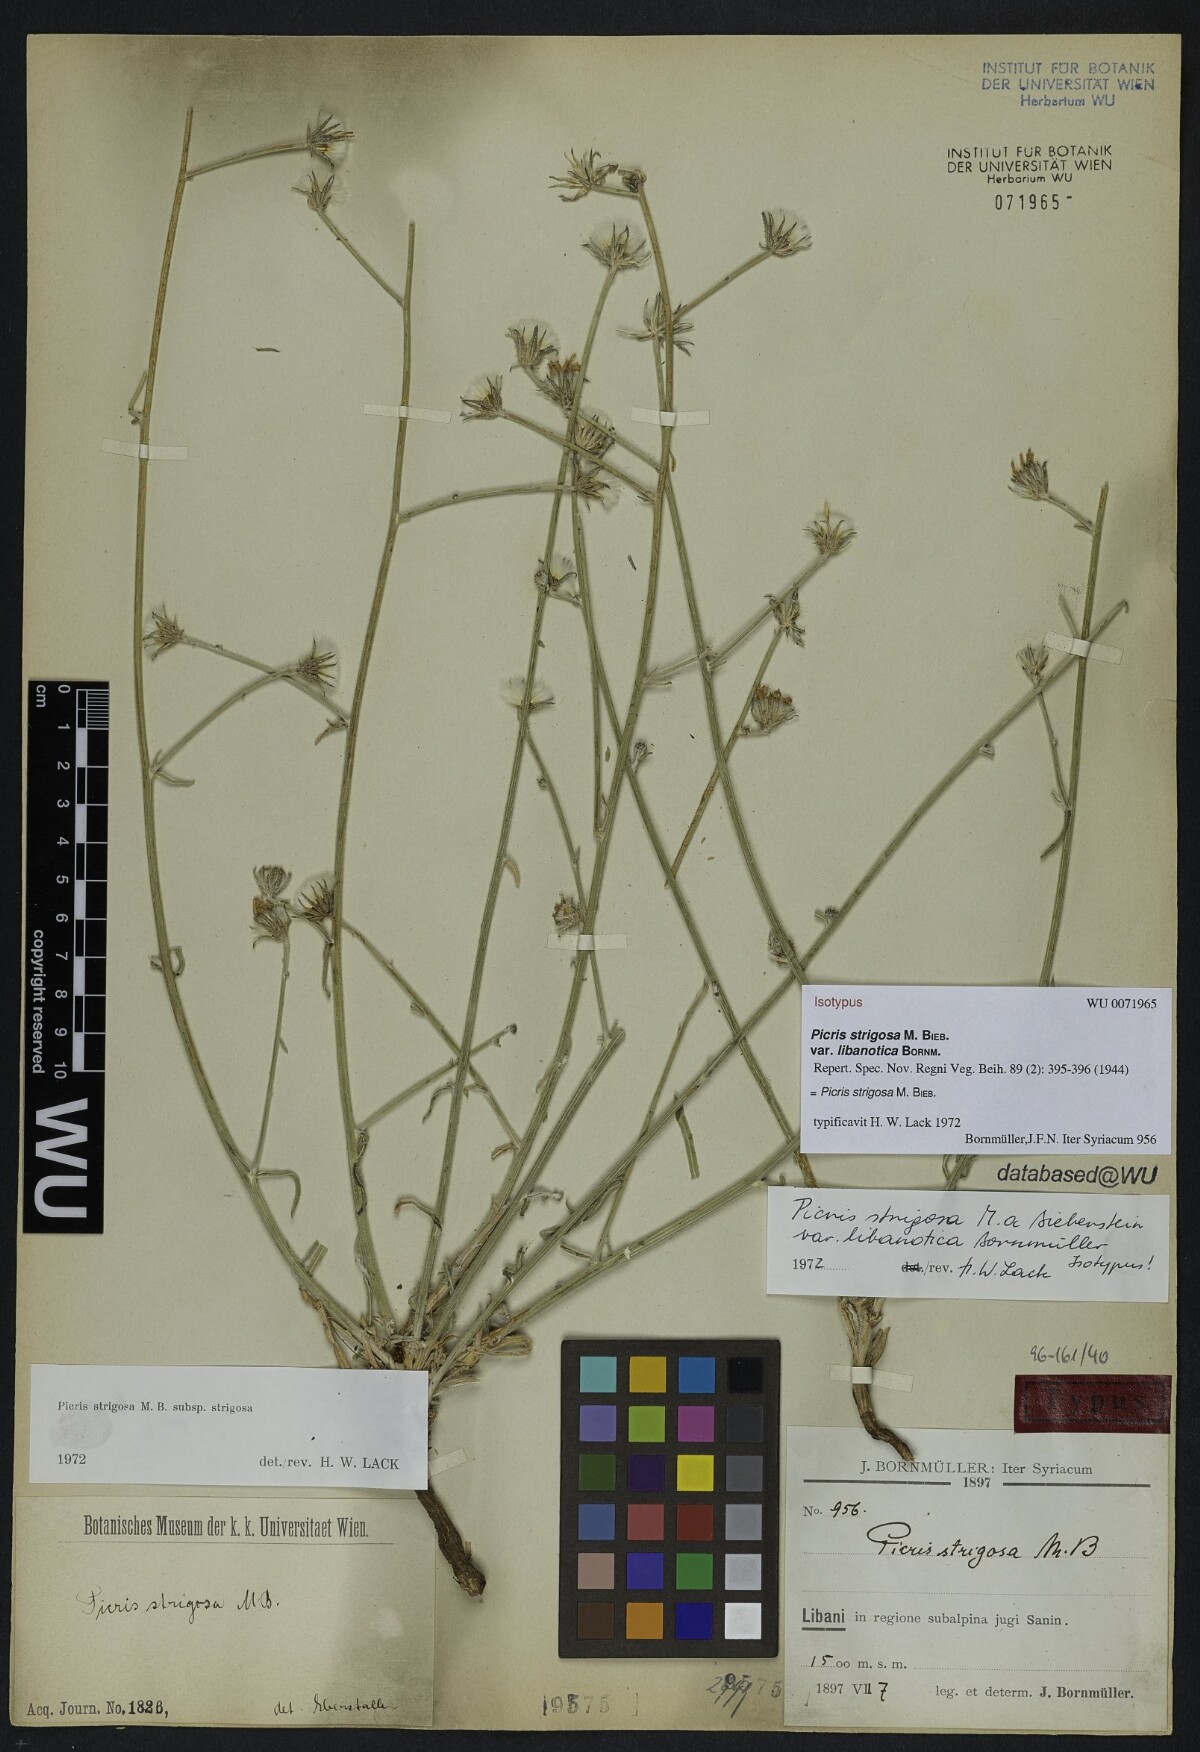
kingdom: Plantae
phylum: Tracheophyta
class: Magnoliopsida
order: Asterales
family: Asteraceae
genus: Picris
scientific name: Picris strigosa
